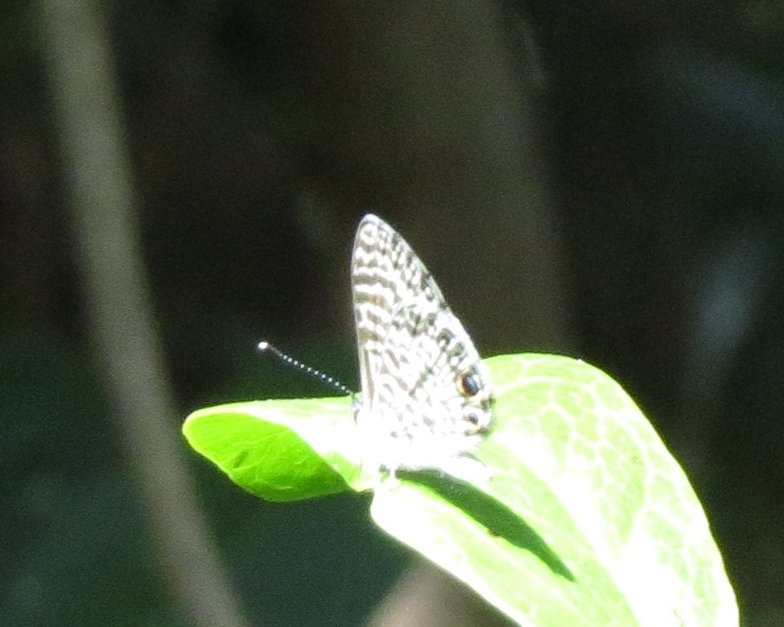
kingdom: Animalia
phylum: Arthropoda
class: Insecta
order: Lepidoptera
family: Lycaenidae
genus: Leptotes
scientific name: Leptotes cassius
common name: Cassius Blue
